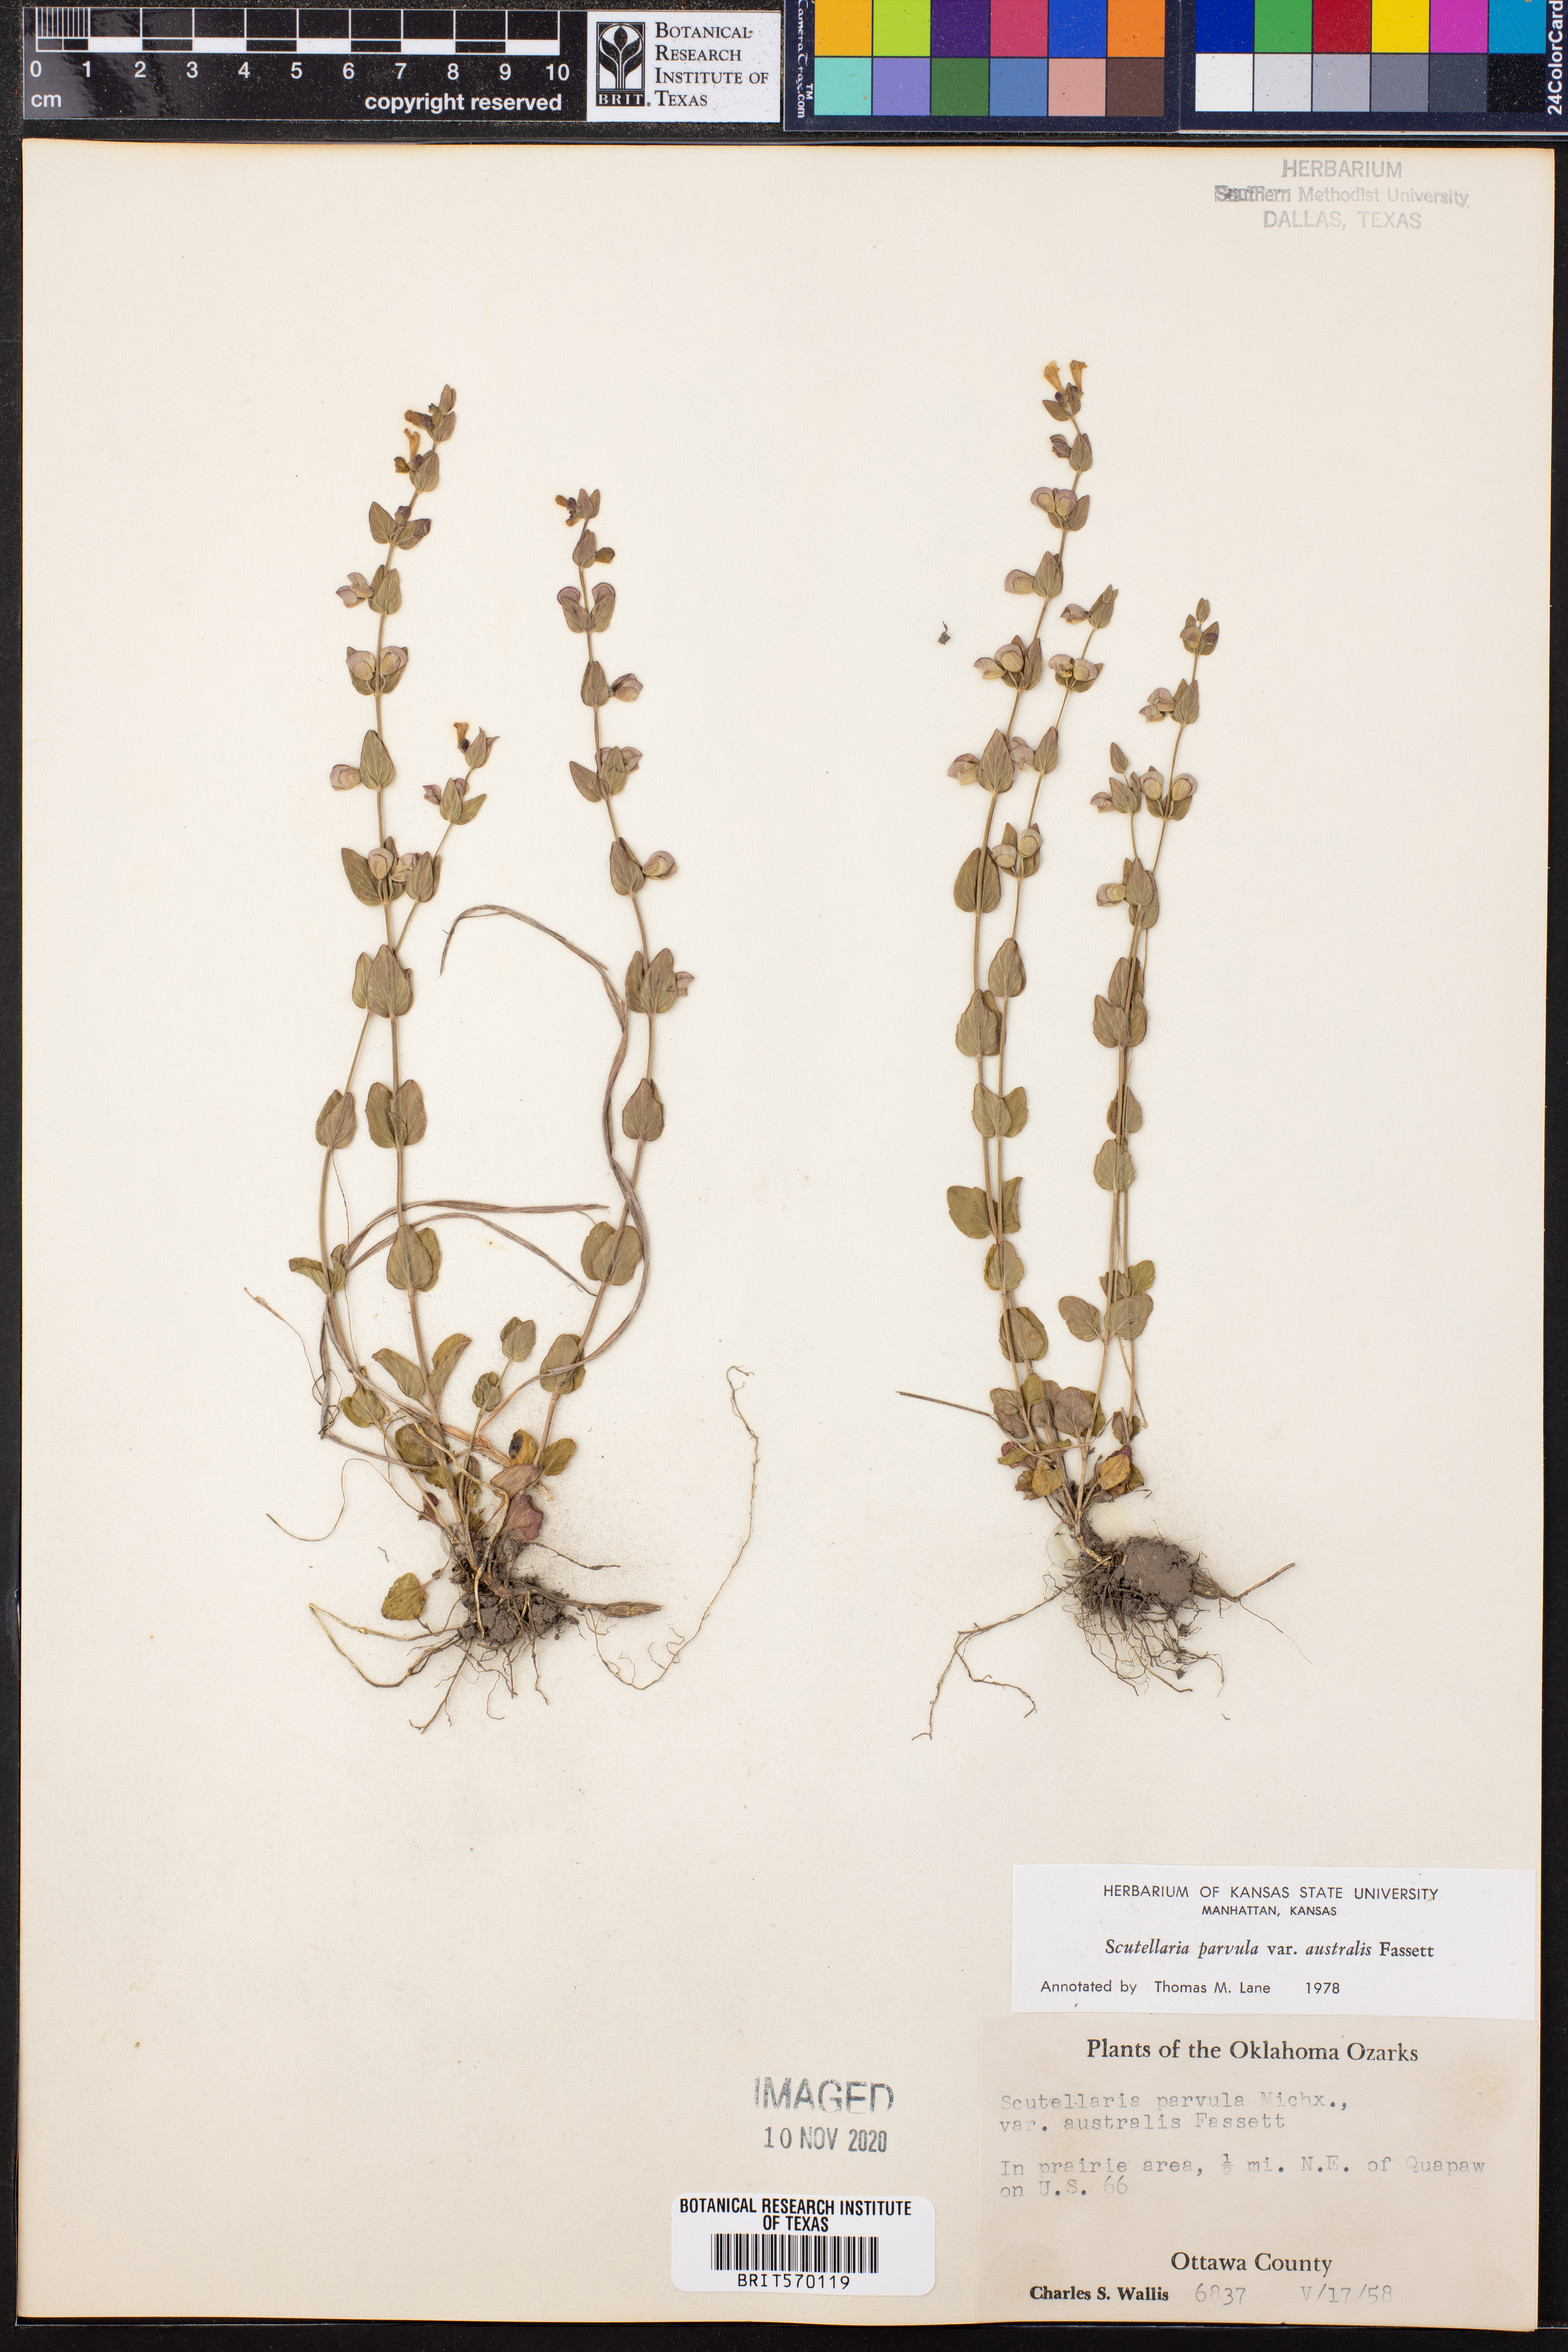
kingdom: Plantae
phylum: Tracheophyta
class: Magnoliopsida
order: Lamiales
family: Lamiaceae
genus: Scutellaria
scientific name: Scutellaria parvula
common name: Little scullcap
